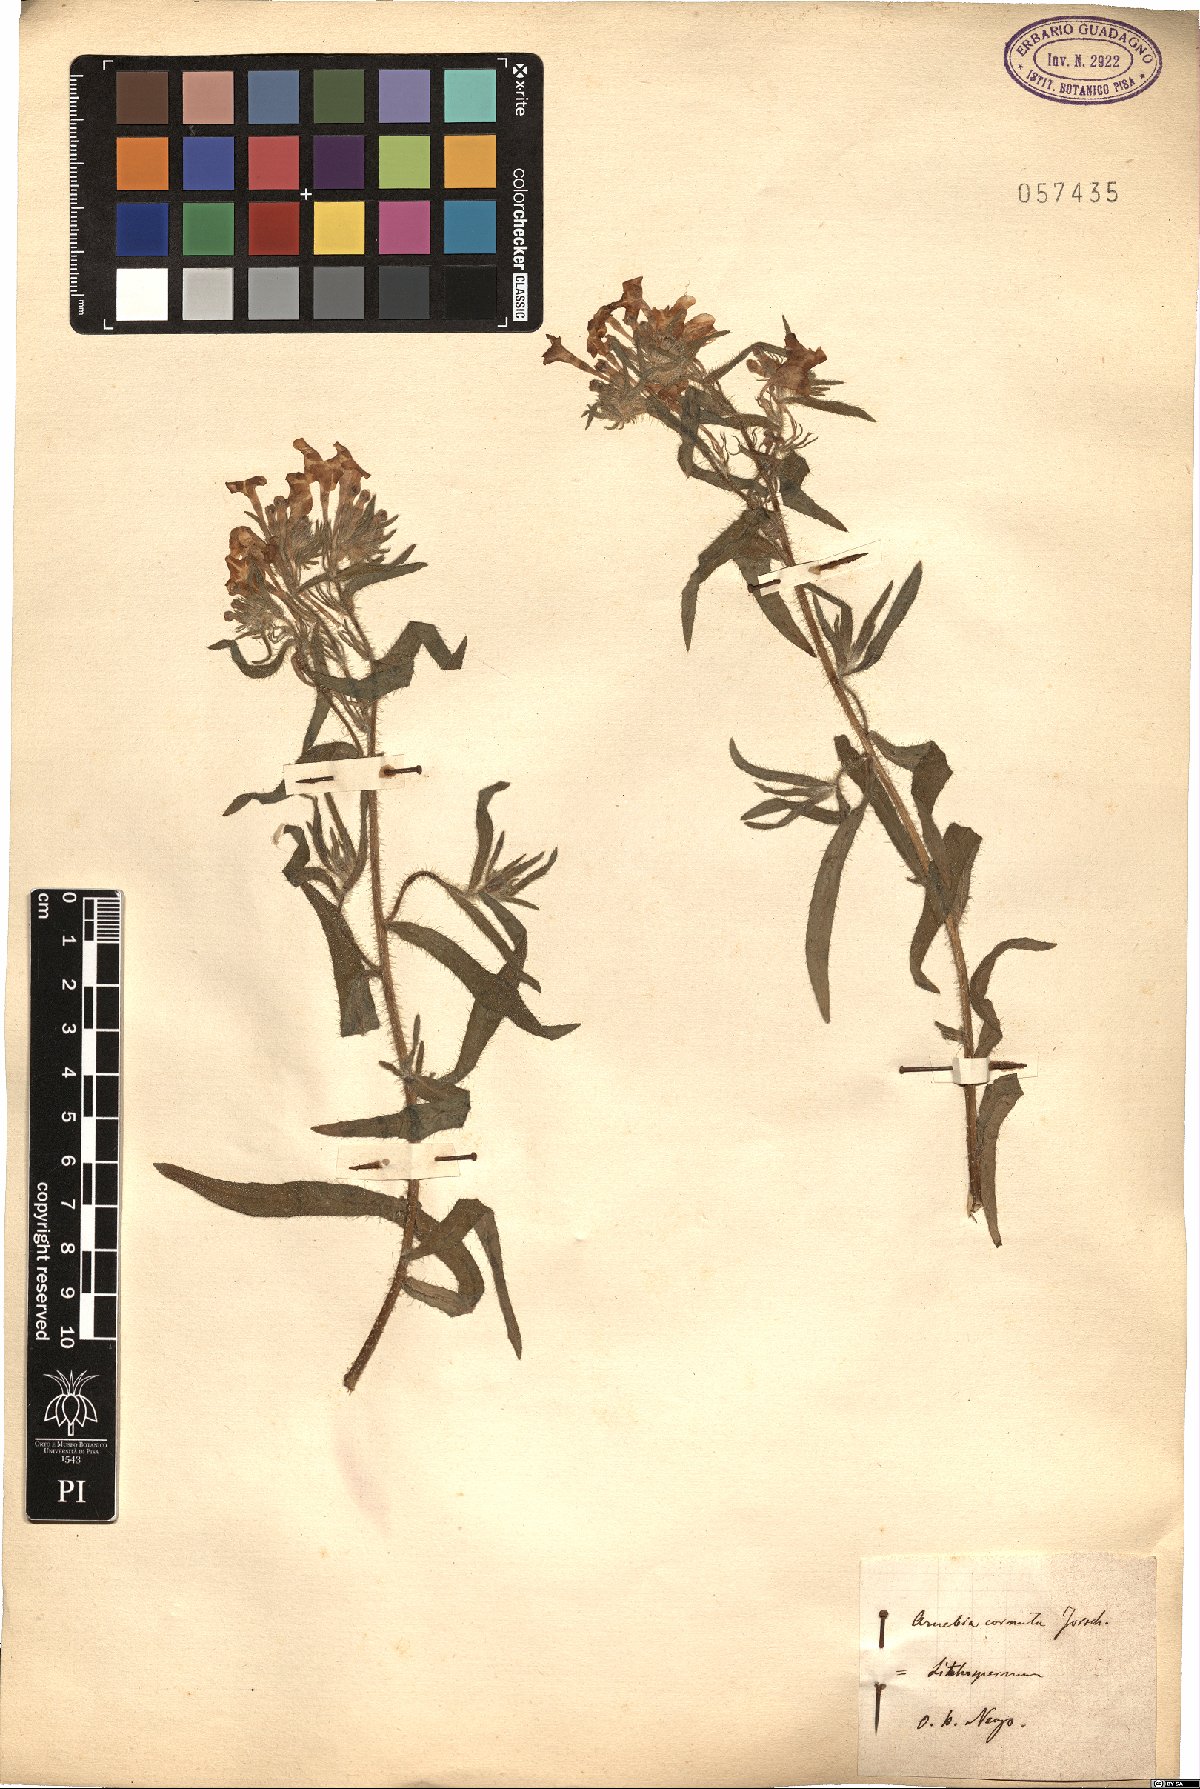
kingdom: Plantae
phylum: Tracheophyta
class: Magnoliopsida
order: Boraginales
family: Boraginaceae
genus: Arnebia
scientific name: Arnebia
